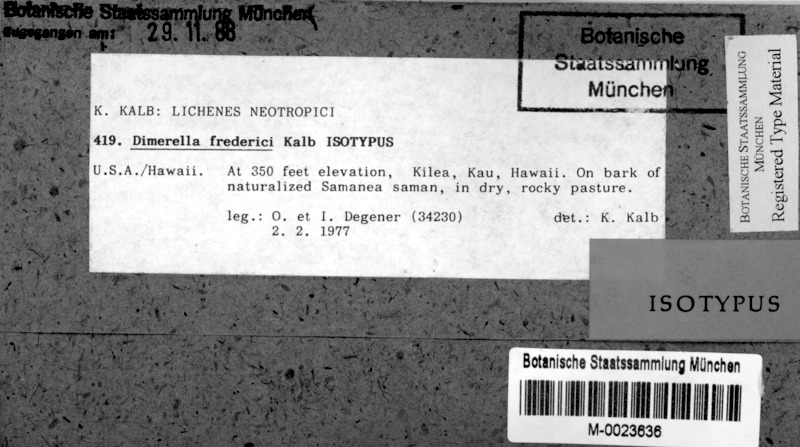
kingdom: Fungi
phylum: Ascomycota
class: Lecanoromycetes
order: Ostropales
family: Coenogoniaceae
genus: Coenogonium
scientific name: Coenogonium frederici
